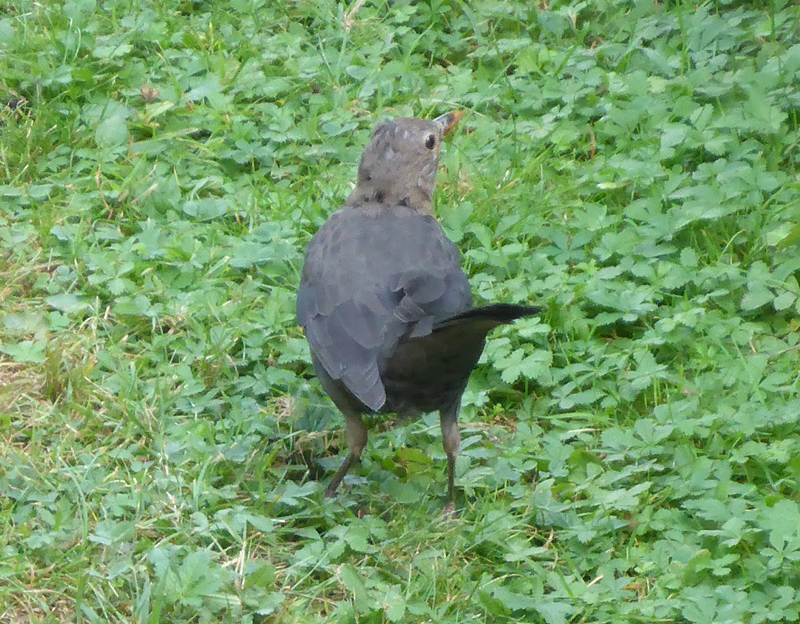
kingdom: Animalia
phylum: Chordata
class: Aves
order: Passeriformes
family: Turdidae
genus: Turdus
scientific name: Turdus merula
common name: Common blackbird
